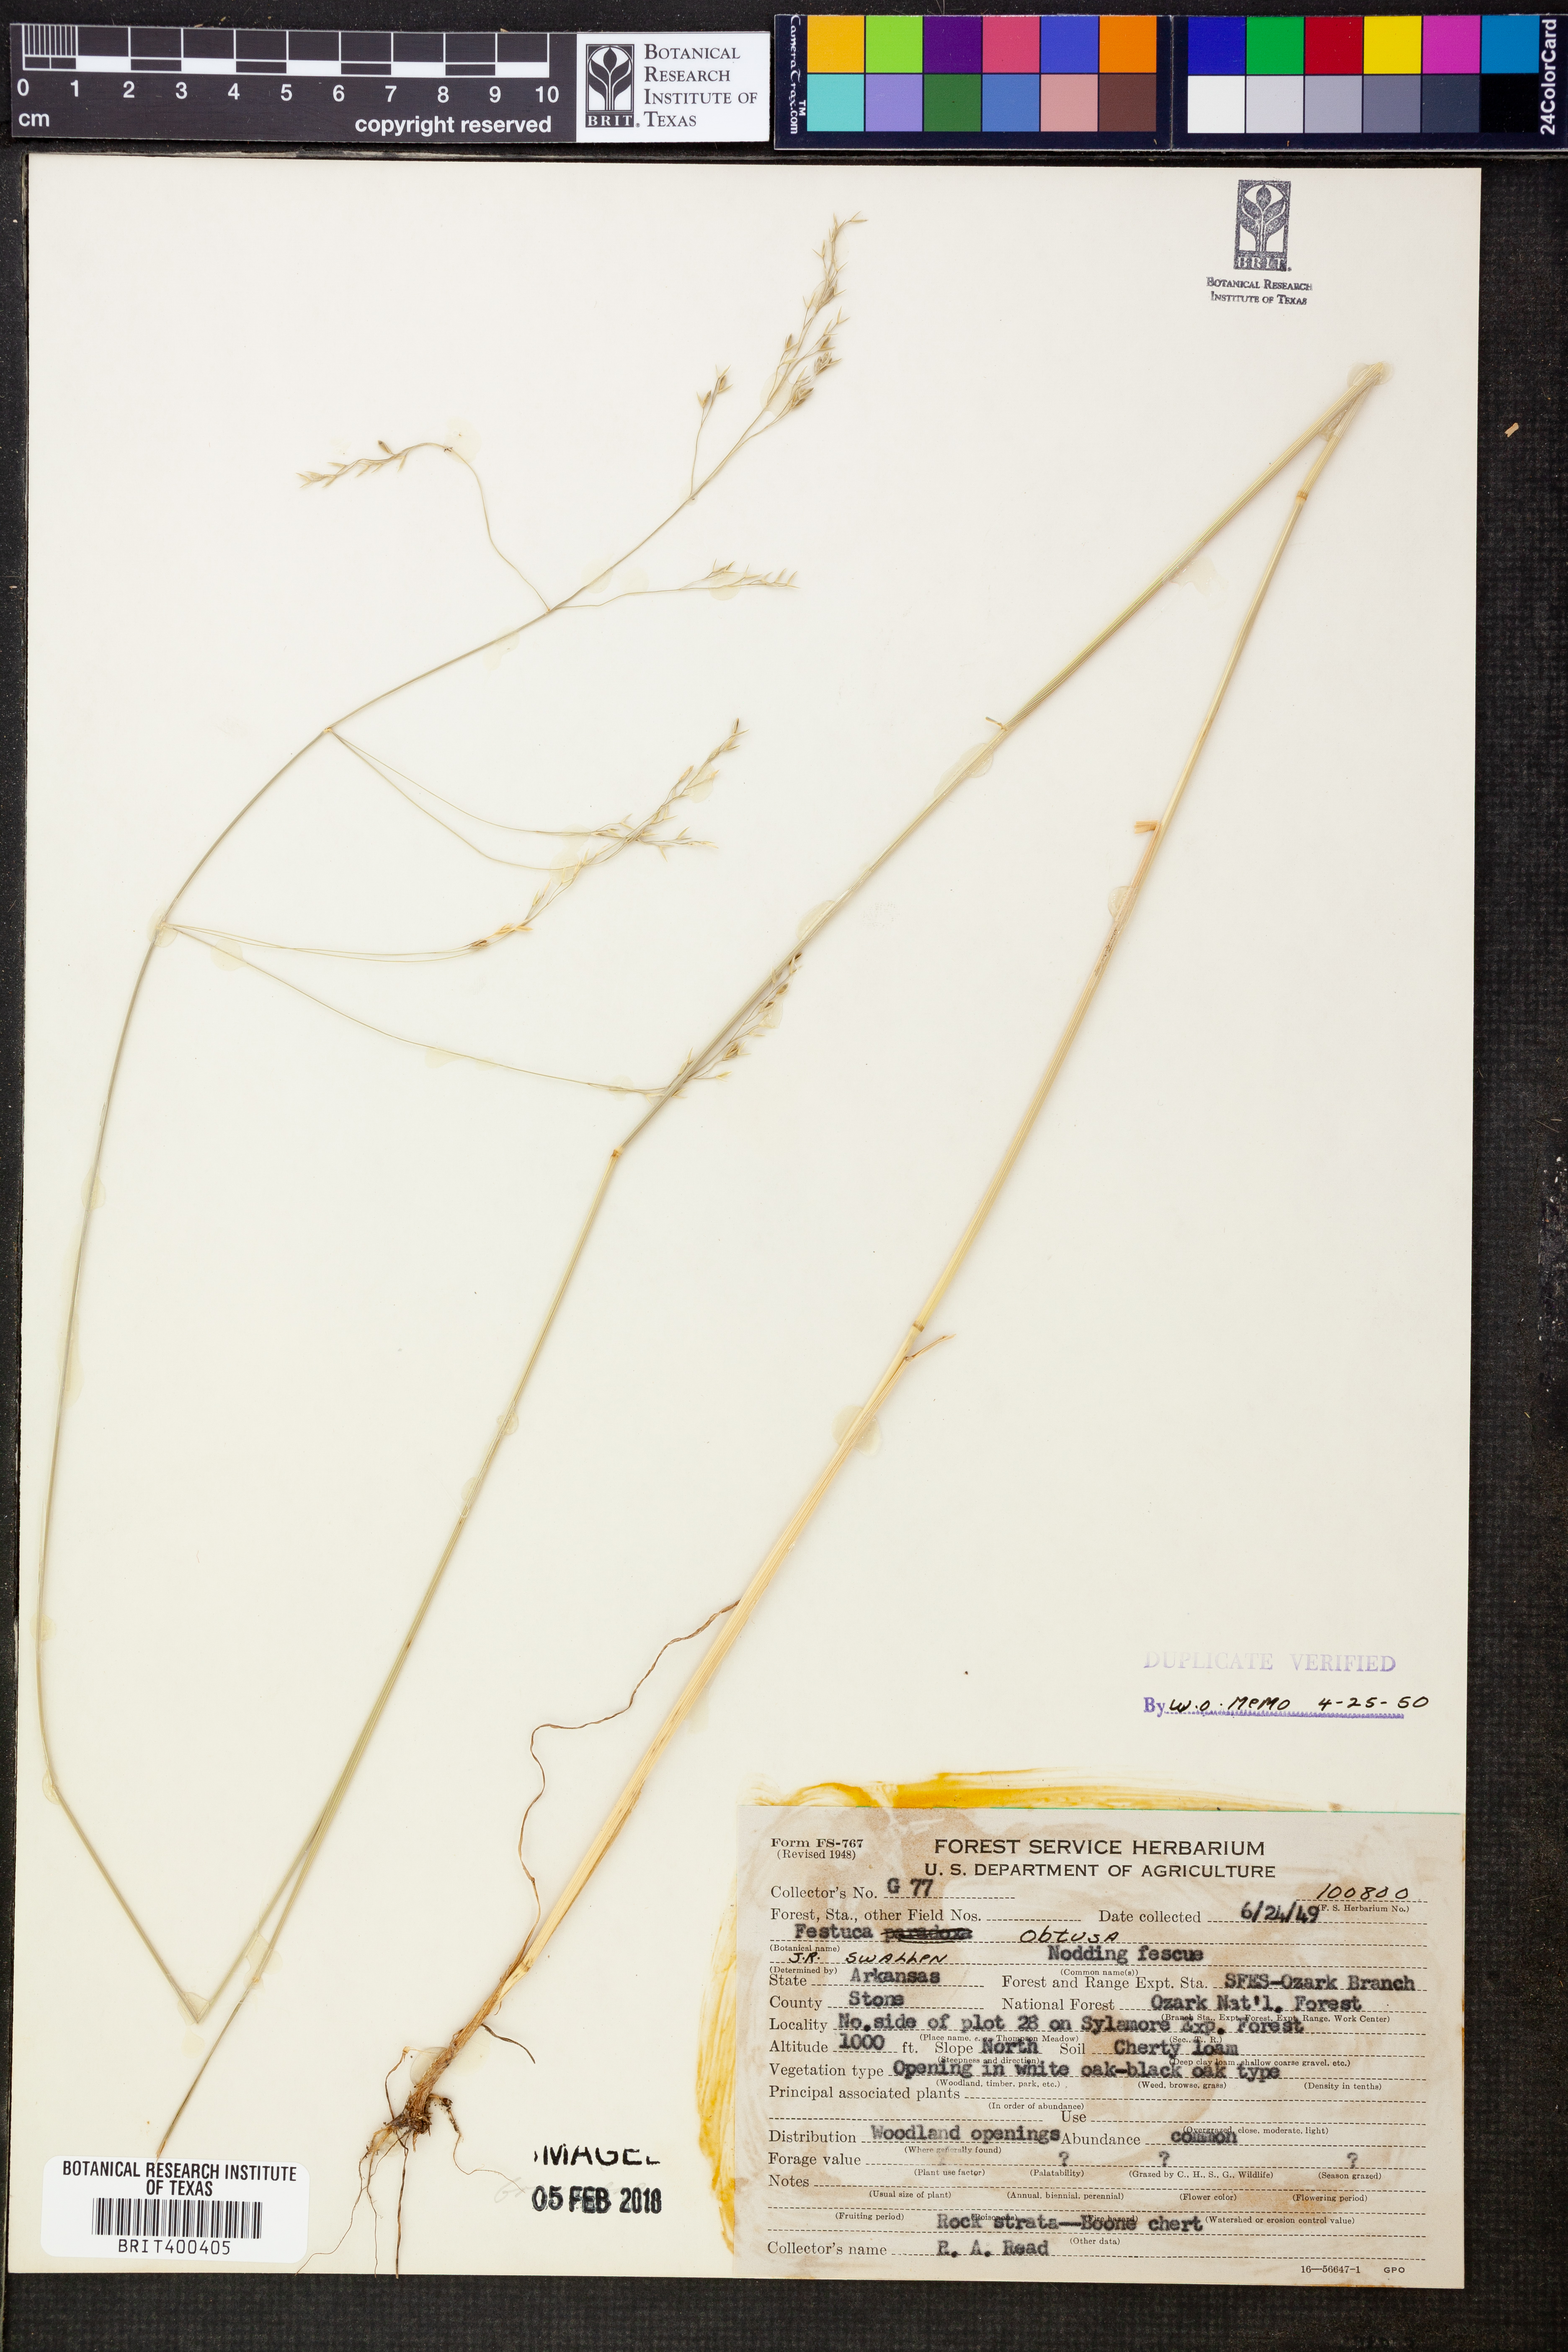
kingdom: Plantae
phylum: Tracheophyta
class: Liliopsida
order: Poales
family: Poaceae
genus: Festuca
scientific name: Festuca subverticillata
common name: Nodding fescue
